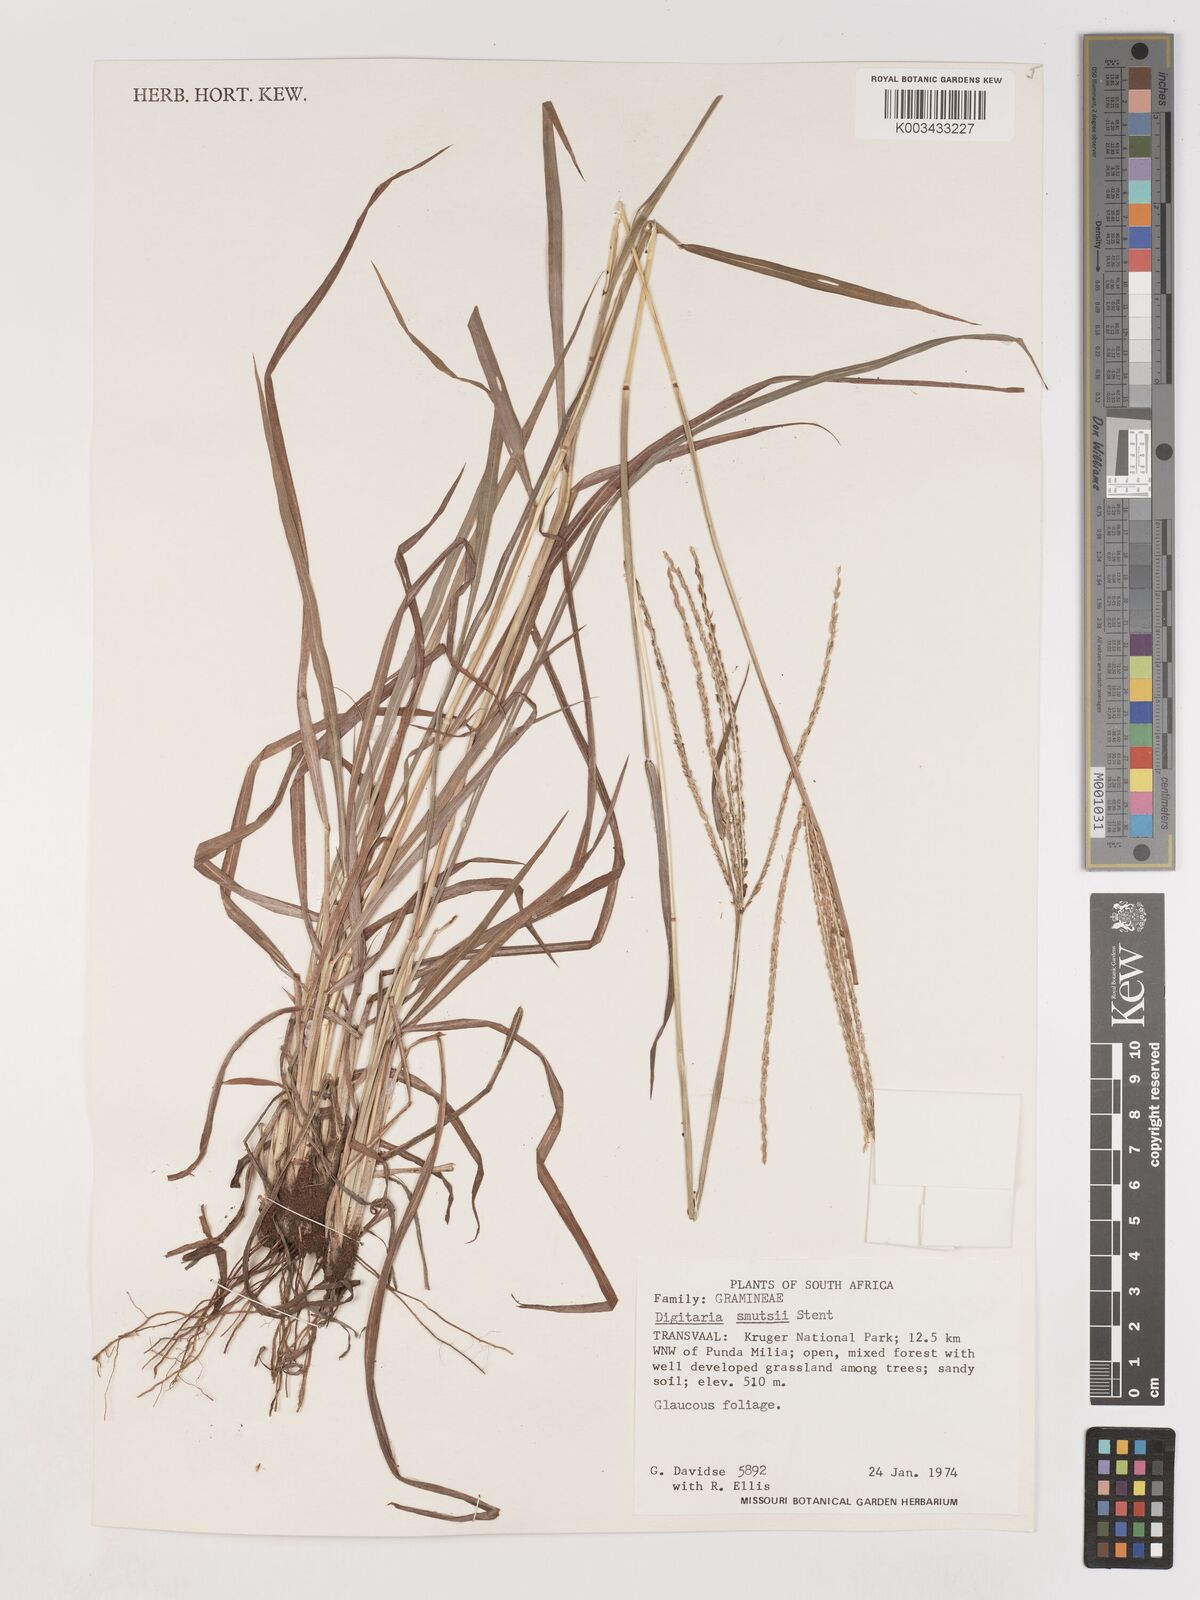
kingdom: Plantae
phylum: Tracheophyta
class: Liliopsida
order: Poales
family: Poaceae
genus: Digitaria
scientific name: Digitaria eriantha
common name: Digitgrass
